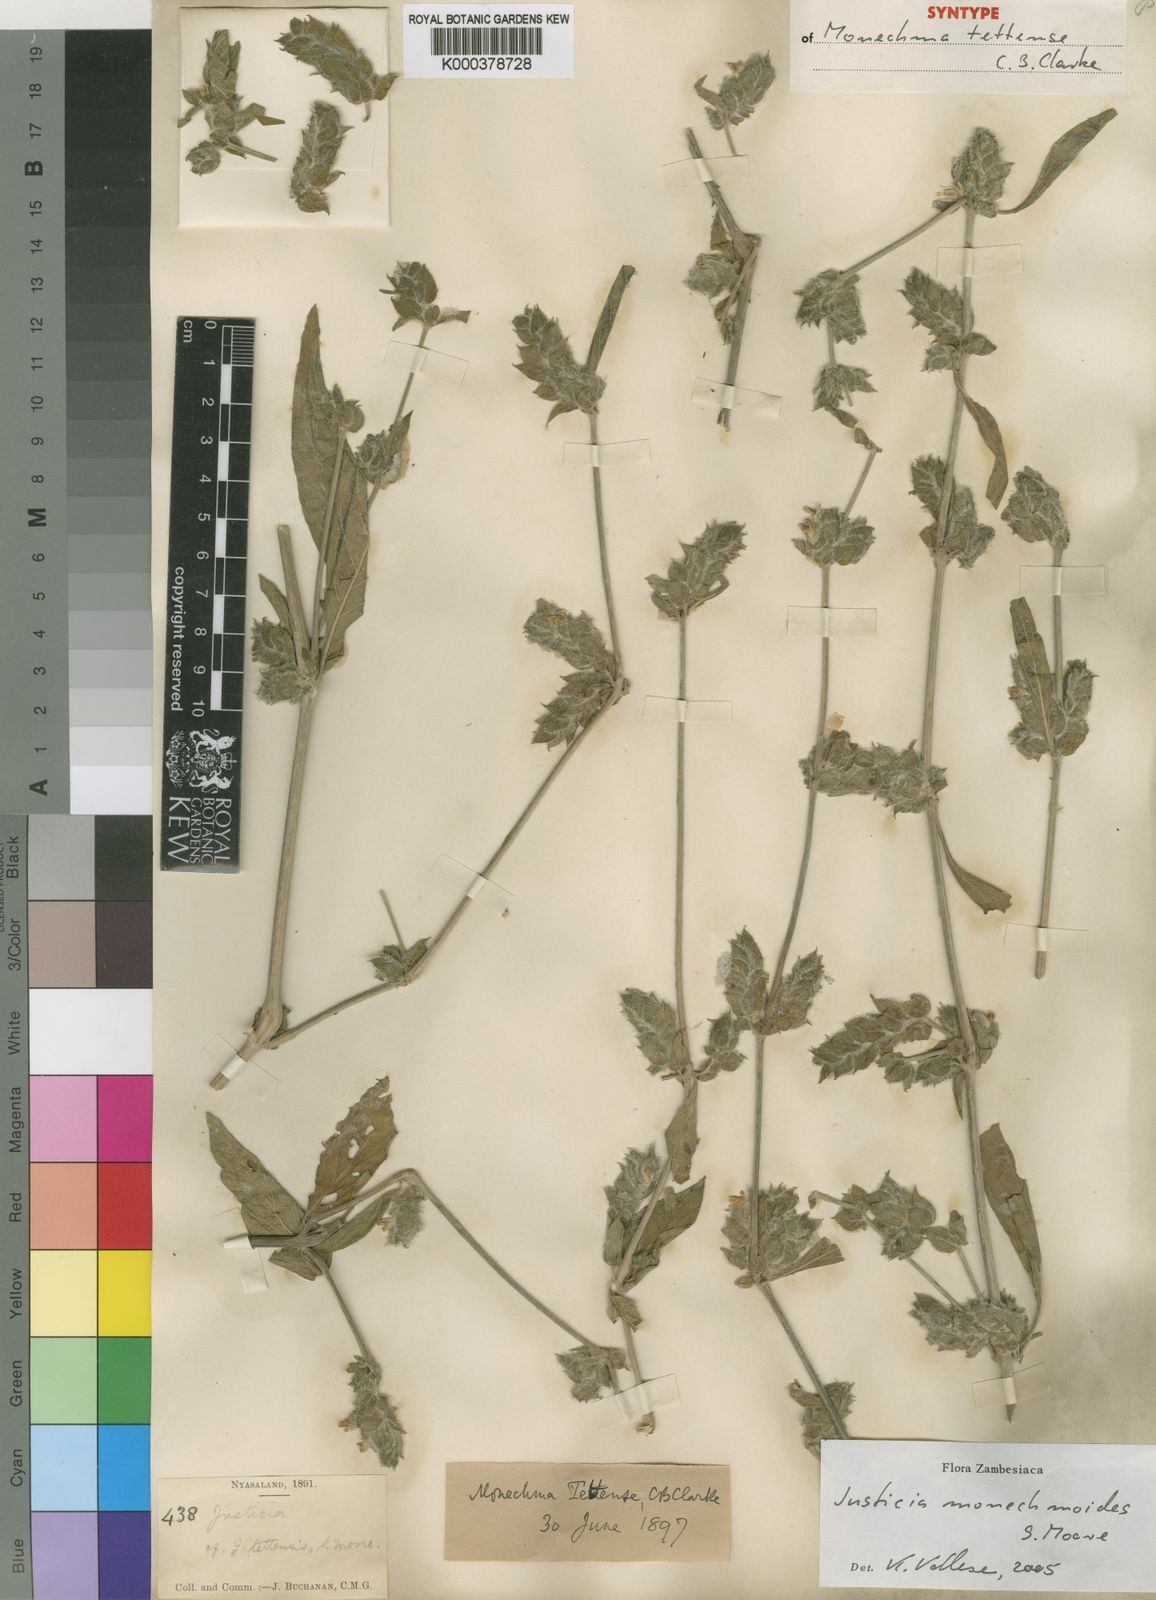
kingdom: Plantae
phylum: Tracheophyta
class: Magnoliopsida
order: Lamiales
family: Acanthaceae
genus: Monechma
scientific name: Monechma monechmoides
